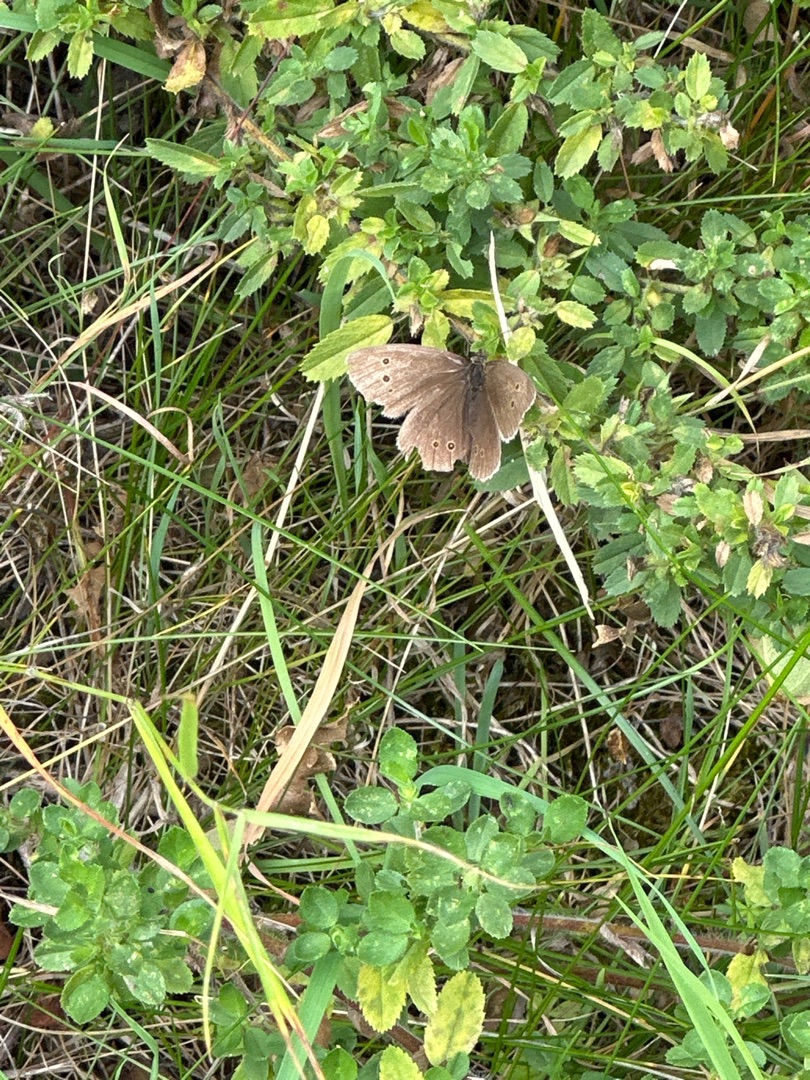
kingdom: Animalia
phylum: Arthropoda
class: Insecta
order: Lepidoptera
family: Nymphalidae
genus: Aphantopus
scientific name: Aphantopus hyperantus
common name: Engrandøje
